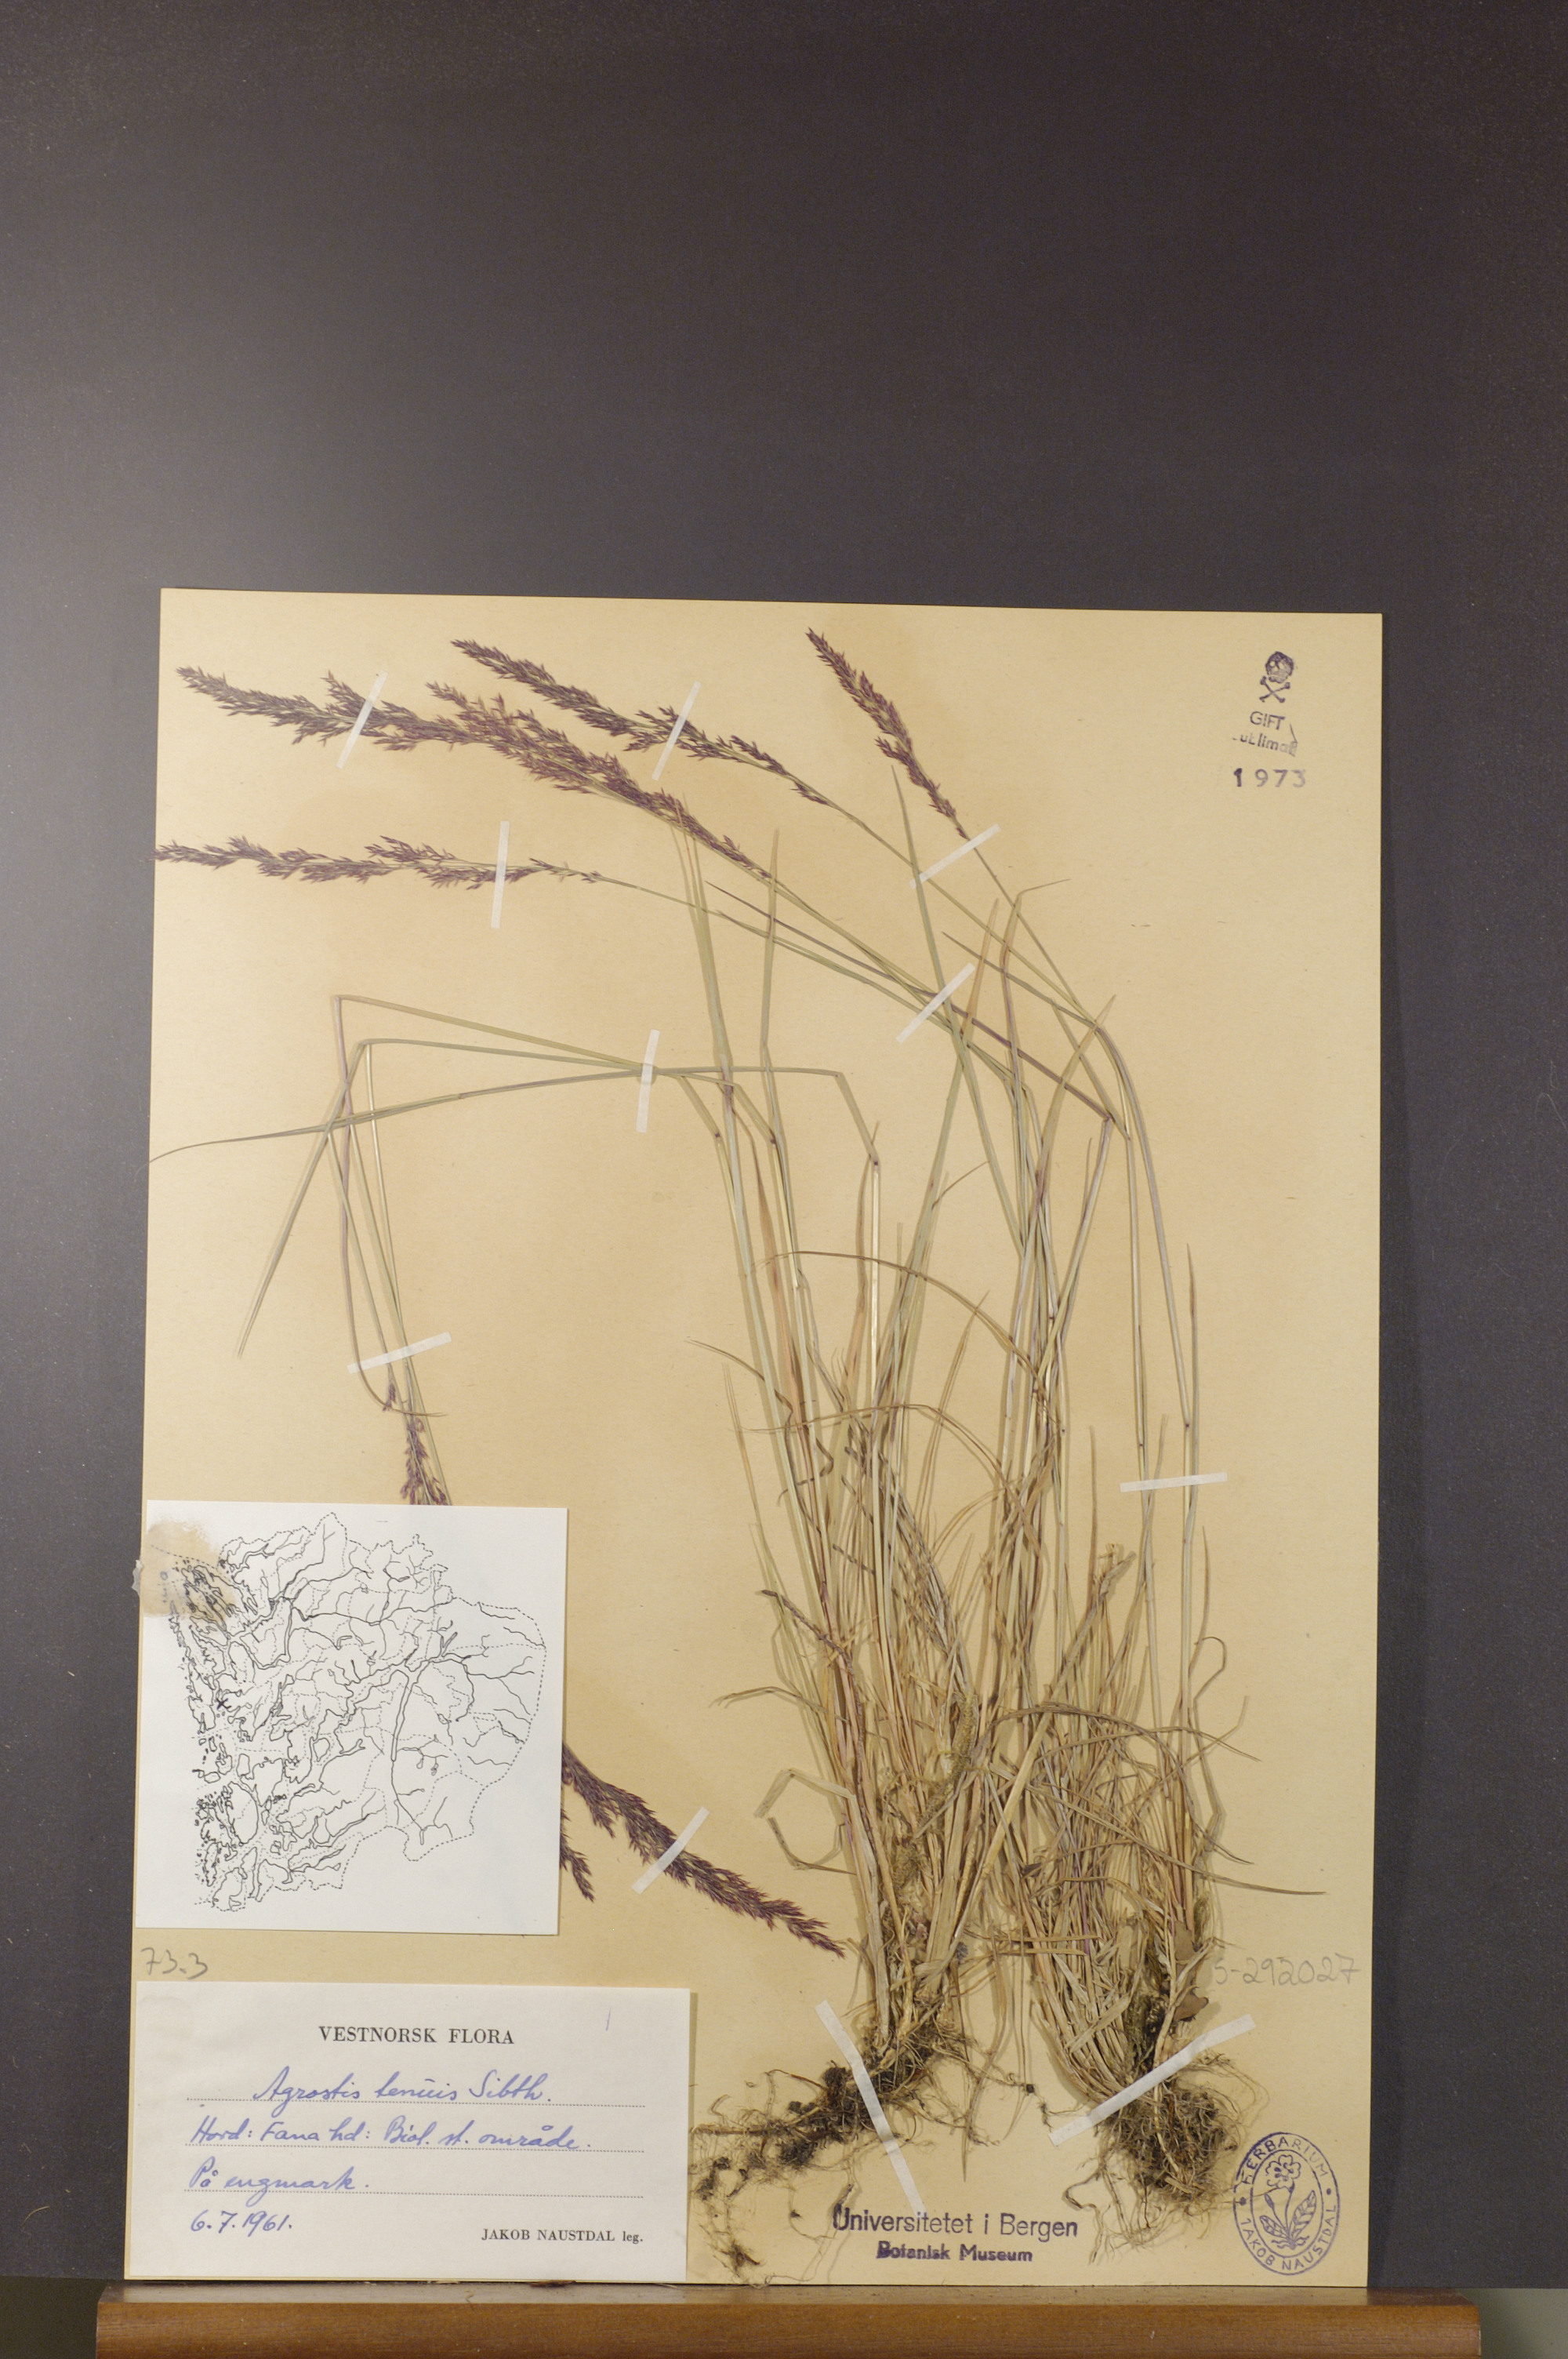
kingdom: Plantae
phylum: Tracheophyta
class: Liliopsida
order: Poales
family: Poaceae
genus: Agrostis
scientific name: Agrostis capillaris
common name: Colonial bentgrass
